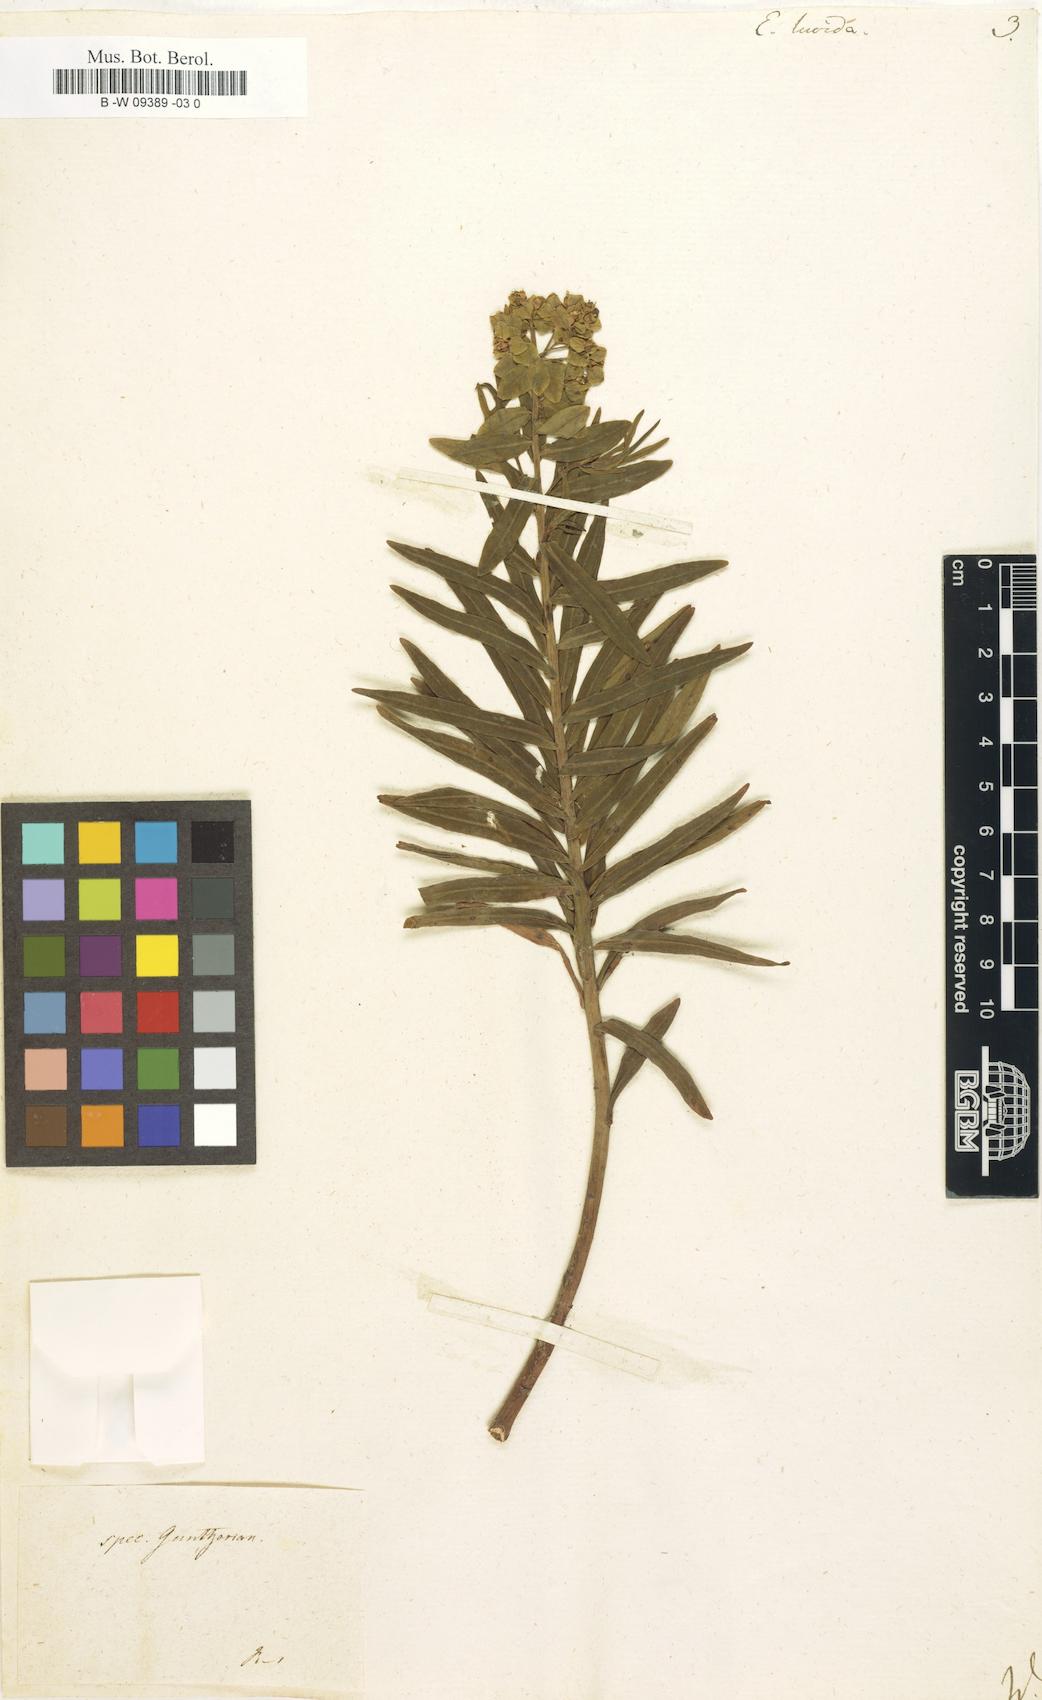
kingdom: Plantae
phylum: Tracheophyta
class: Magnoliopsida
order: Malpighiales
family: Euphorbiaceae
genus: Euphorbia
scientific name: Euphorbia lucida
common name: Shining spurge
